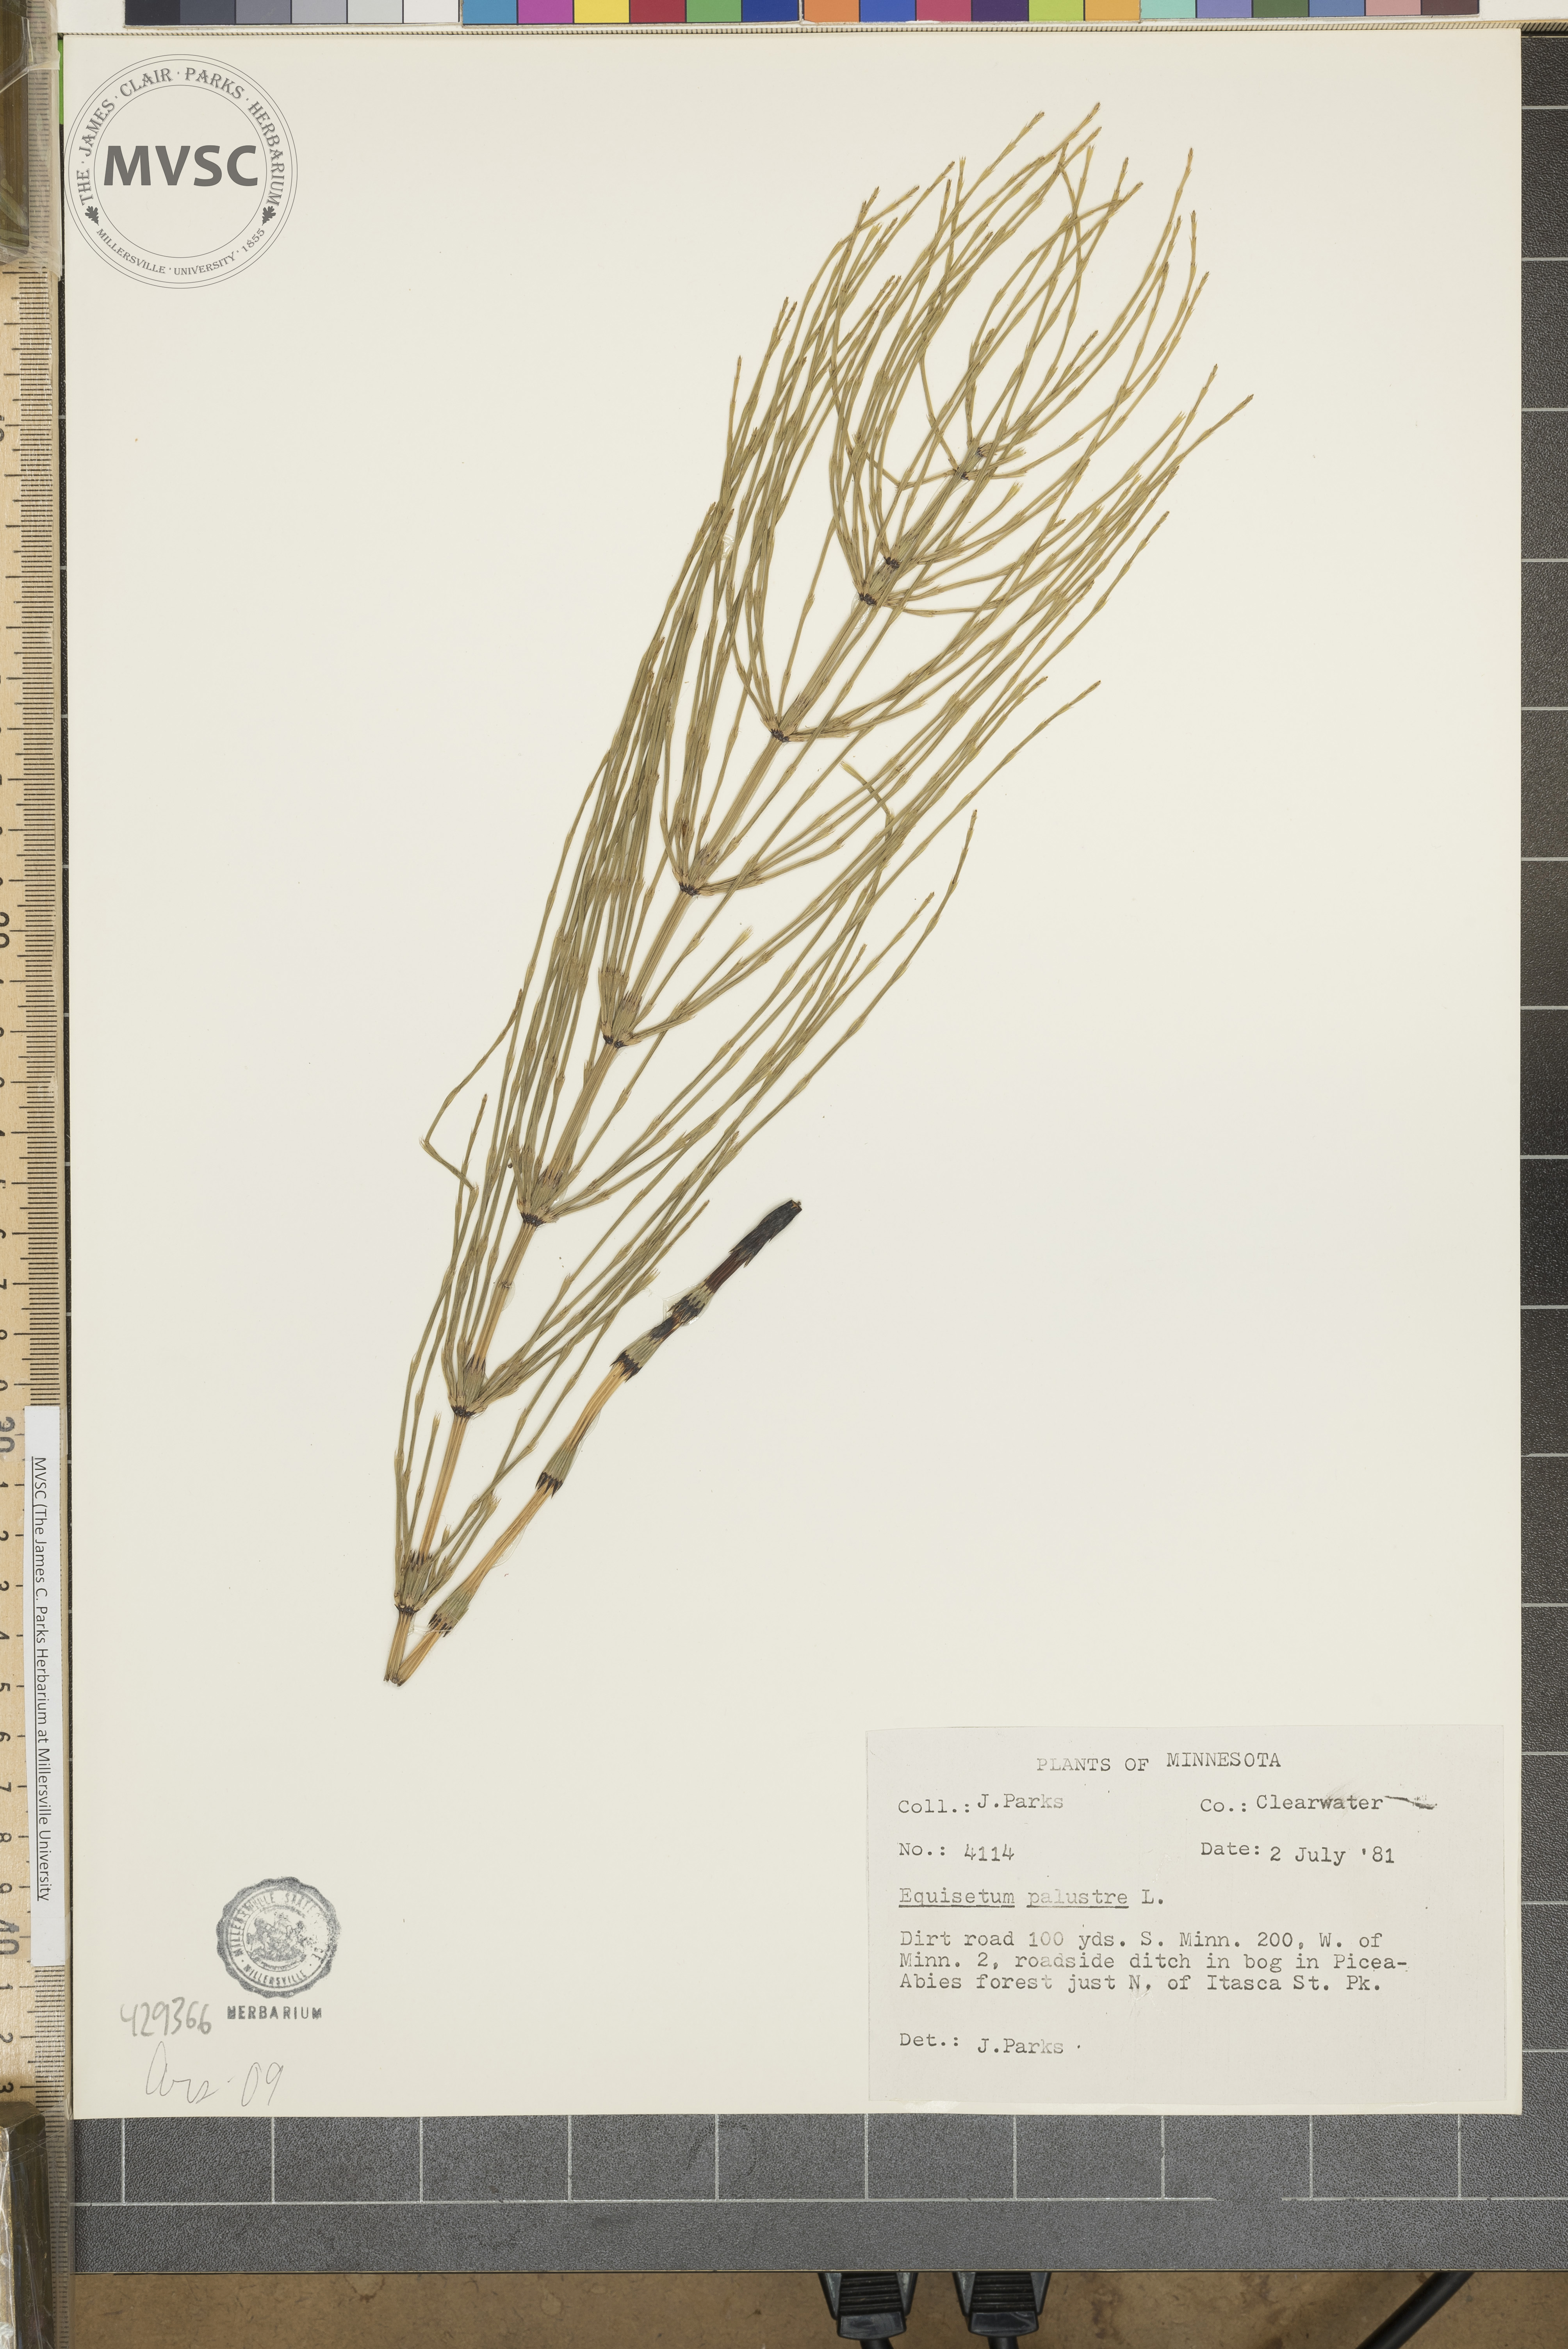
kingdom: Plantae
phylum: Tracheophyta
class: Polypodiopsida
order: Equisetales
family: Equisetaceae
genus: Equisetum
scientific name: Equisetum palustre
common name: Marsh horsetail
